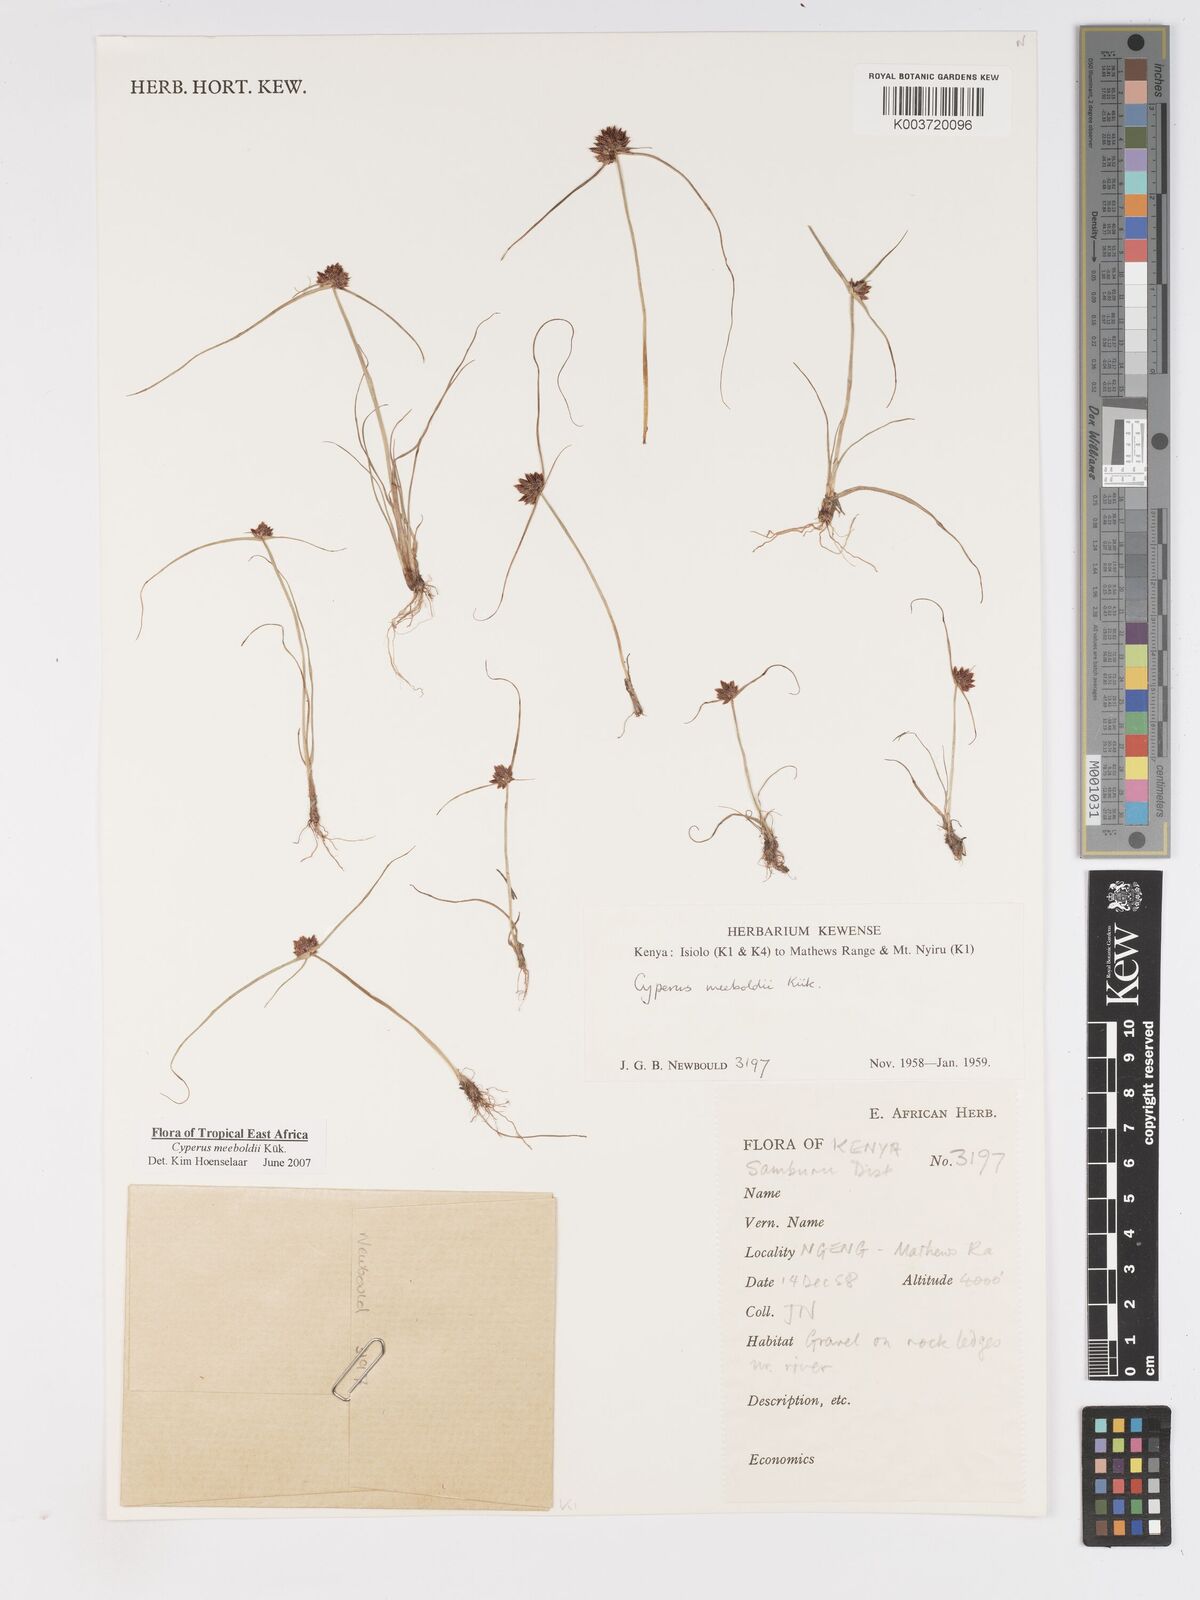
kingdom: Plantae
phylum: Tracheophyta
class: Liliopsida
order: Poales
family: Cyperaceae
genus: Cyperus
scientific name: Cyperus meeboldii
